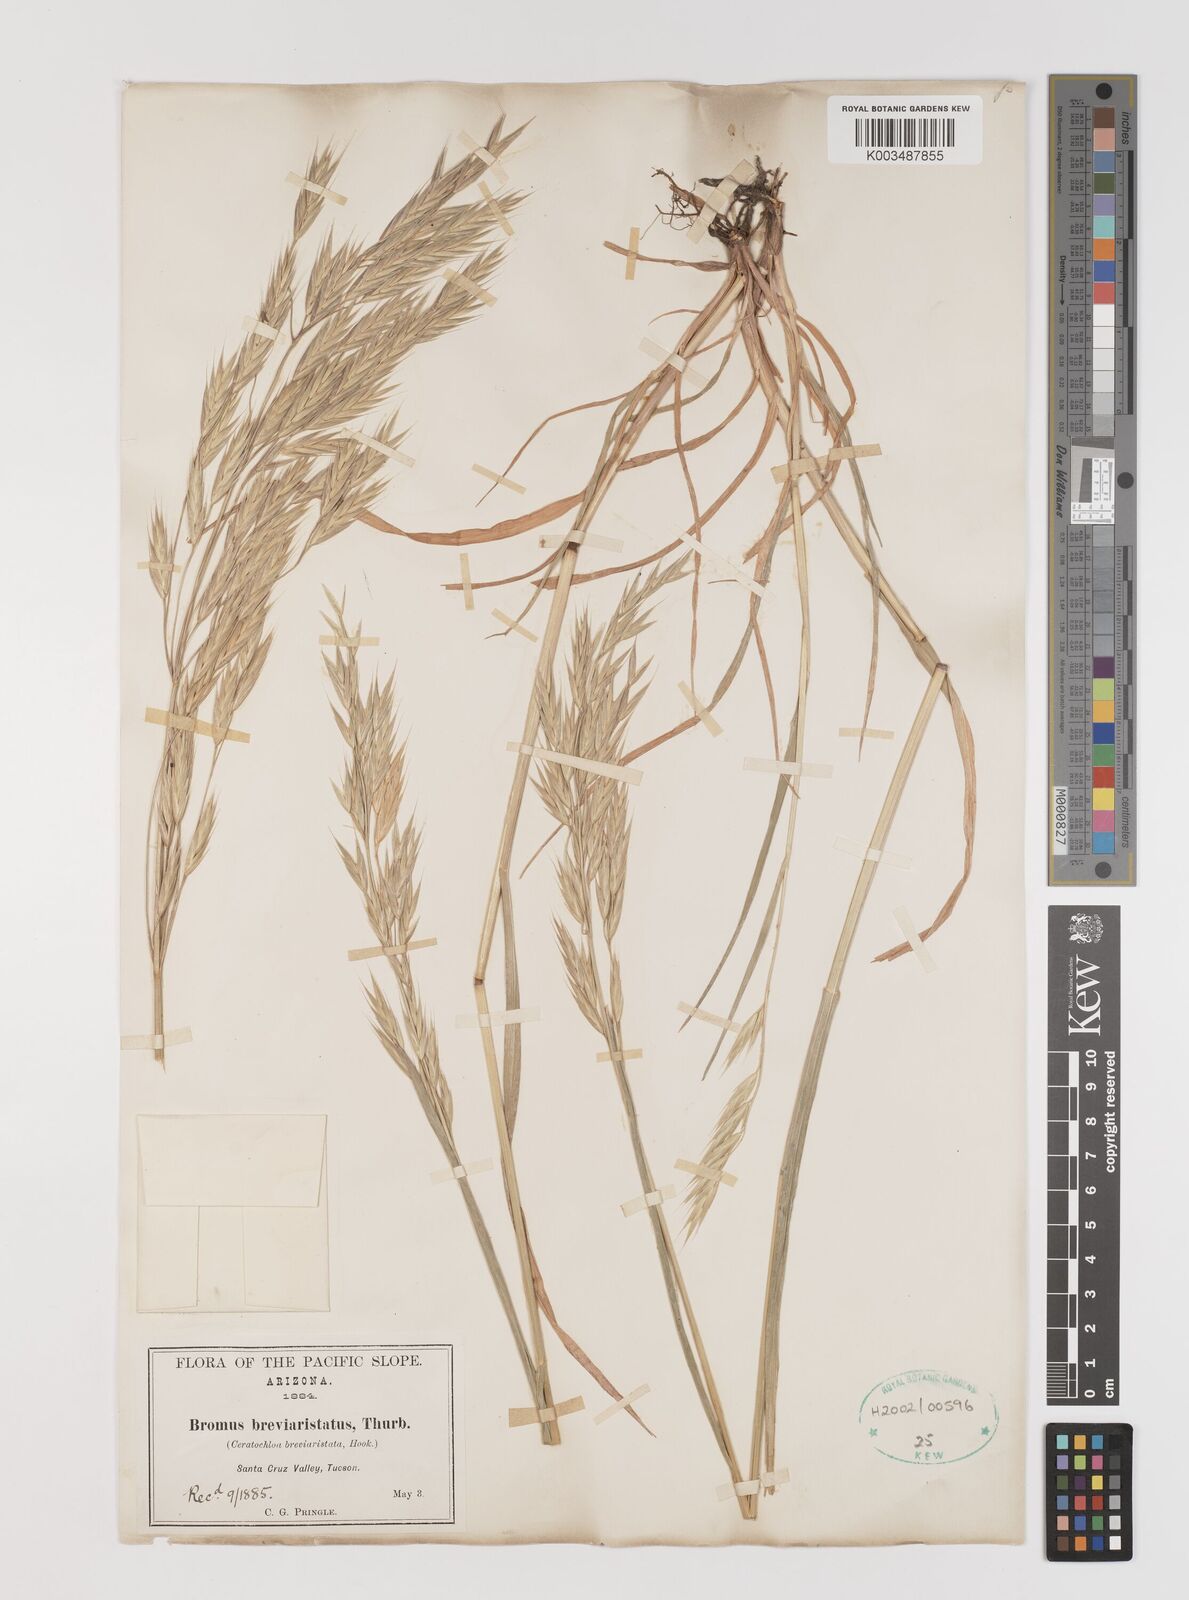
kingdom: Plantae
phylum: Tracheophyta
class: Liliopsida
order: Poales
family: Poaceae
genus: Bromus
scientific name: Bromus catharticus
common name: Rescuegrass
